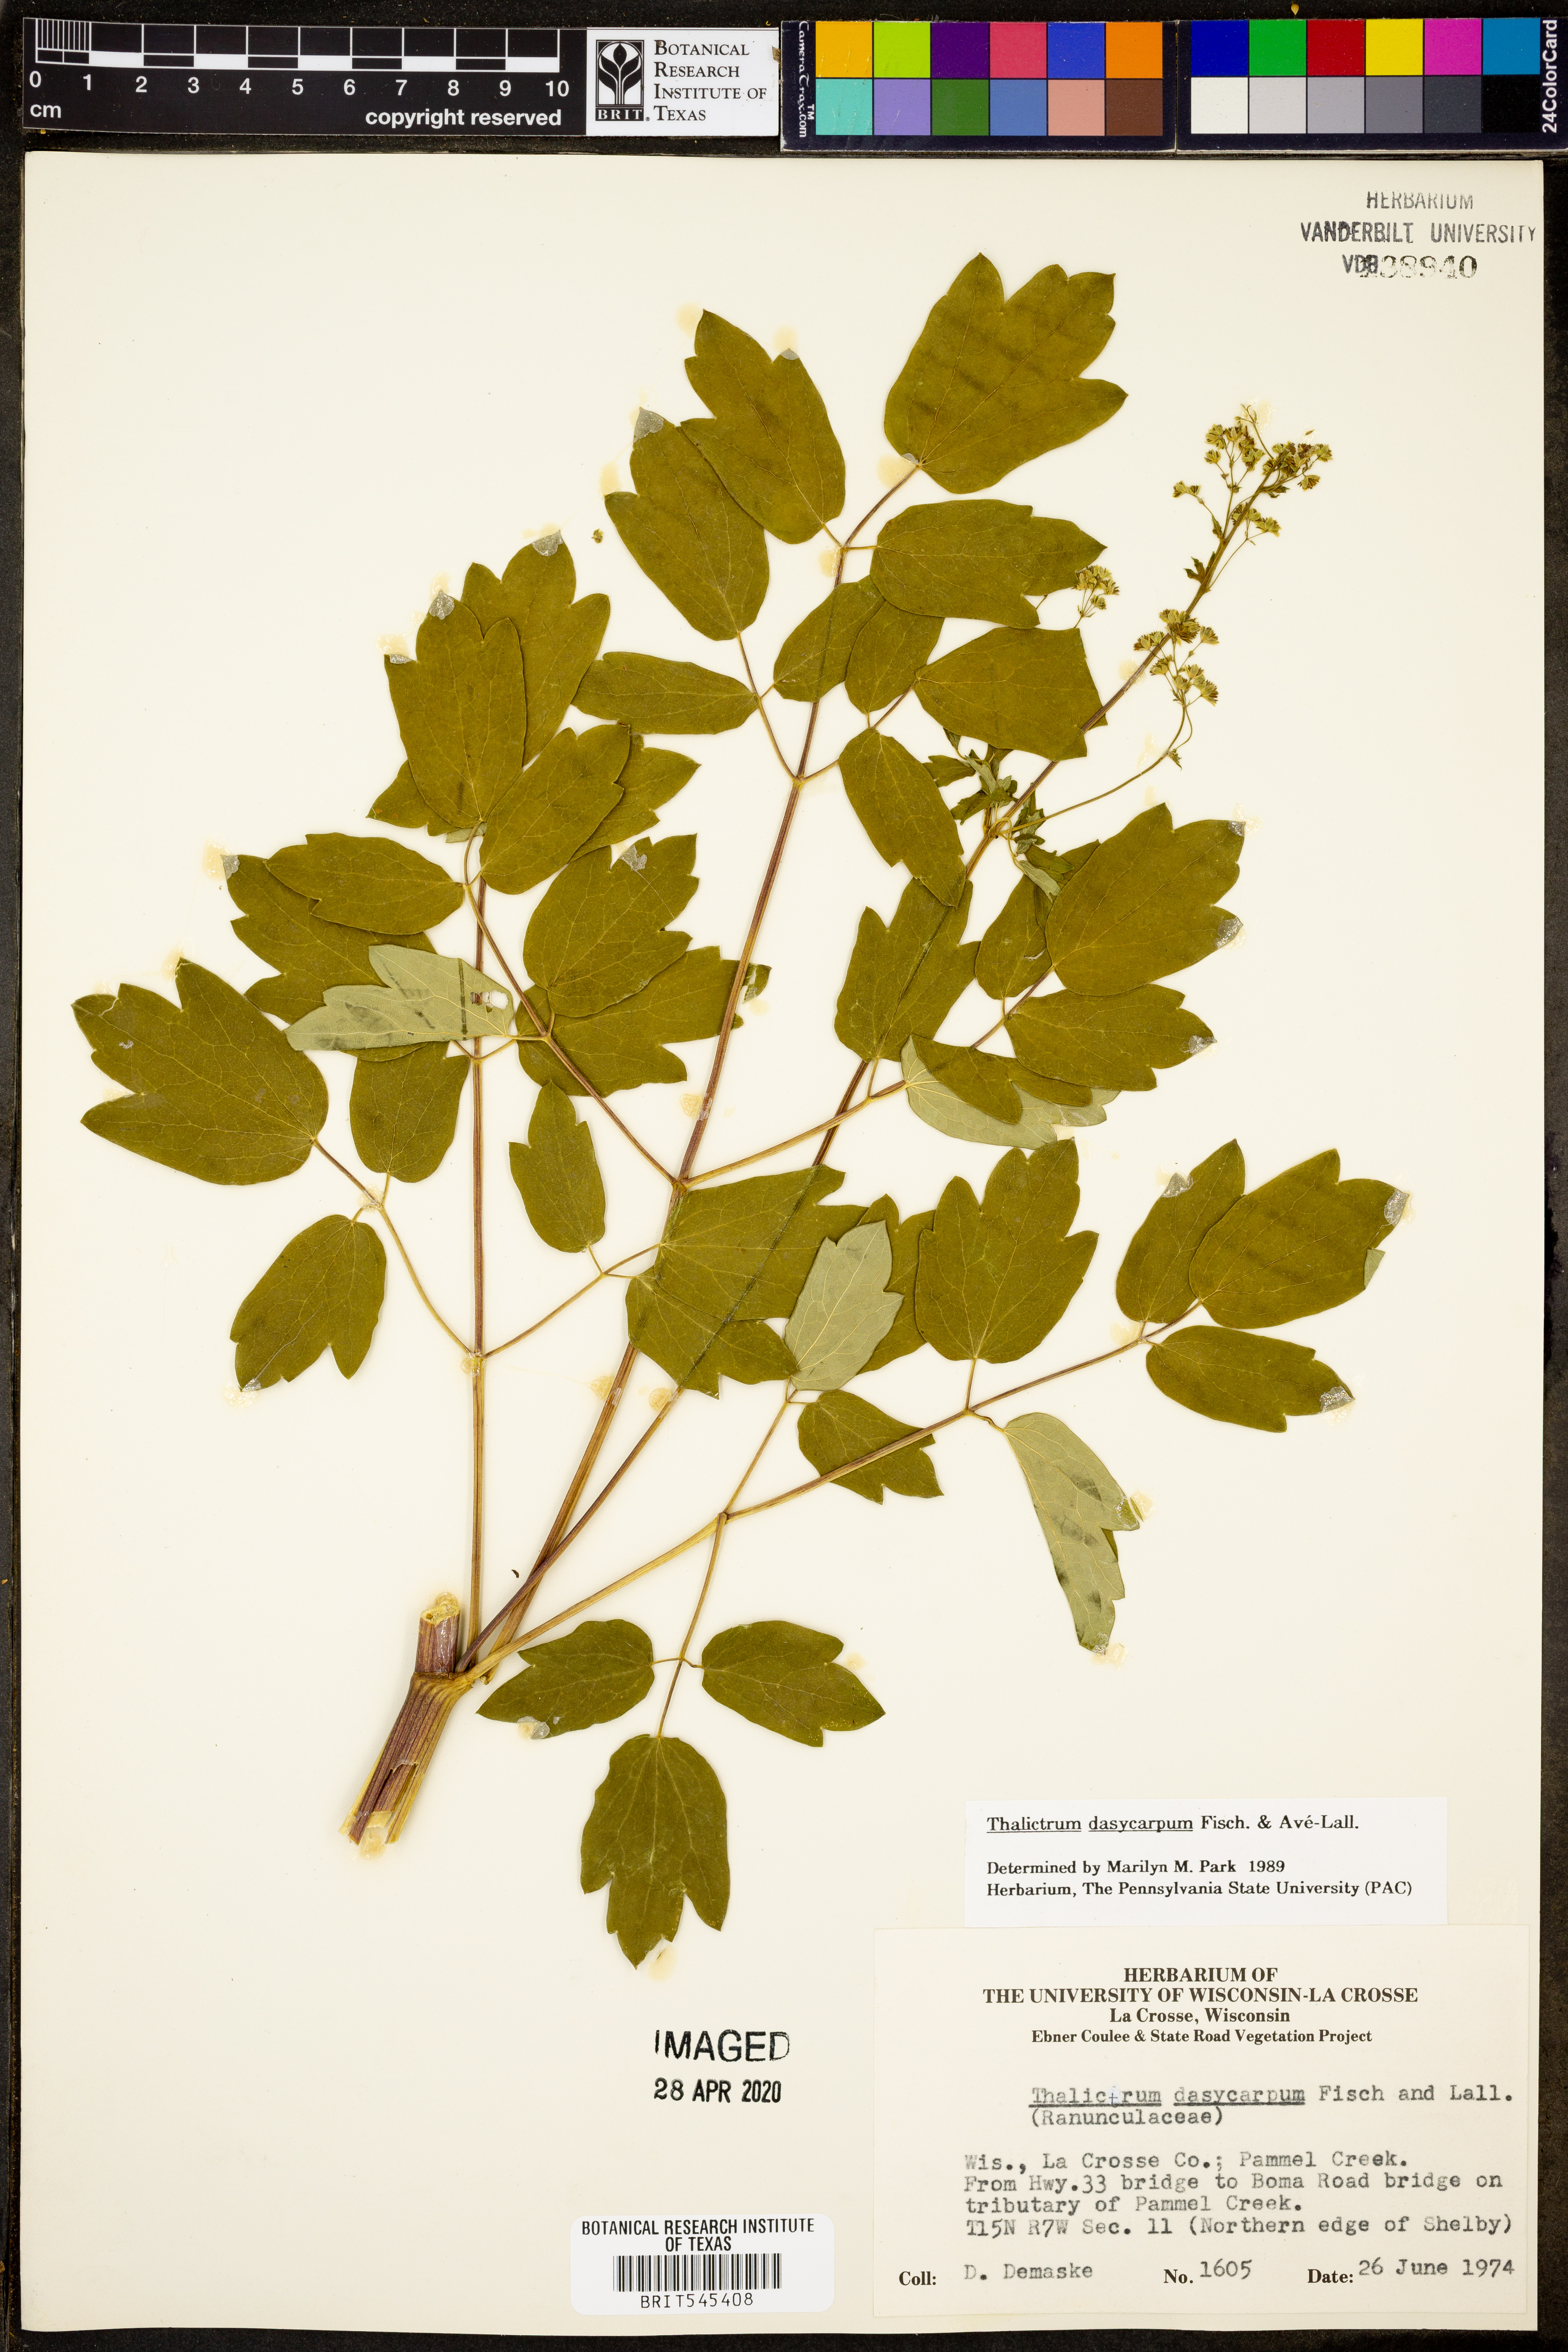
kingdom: Plantae
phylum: Tracheophyta
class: Magnoliopsida
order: Ranunculales
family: Ranunculaceae
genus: Thalictrum
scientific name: Thalictrum dasycarpum
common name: Purple meadow-rue
